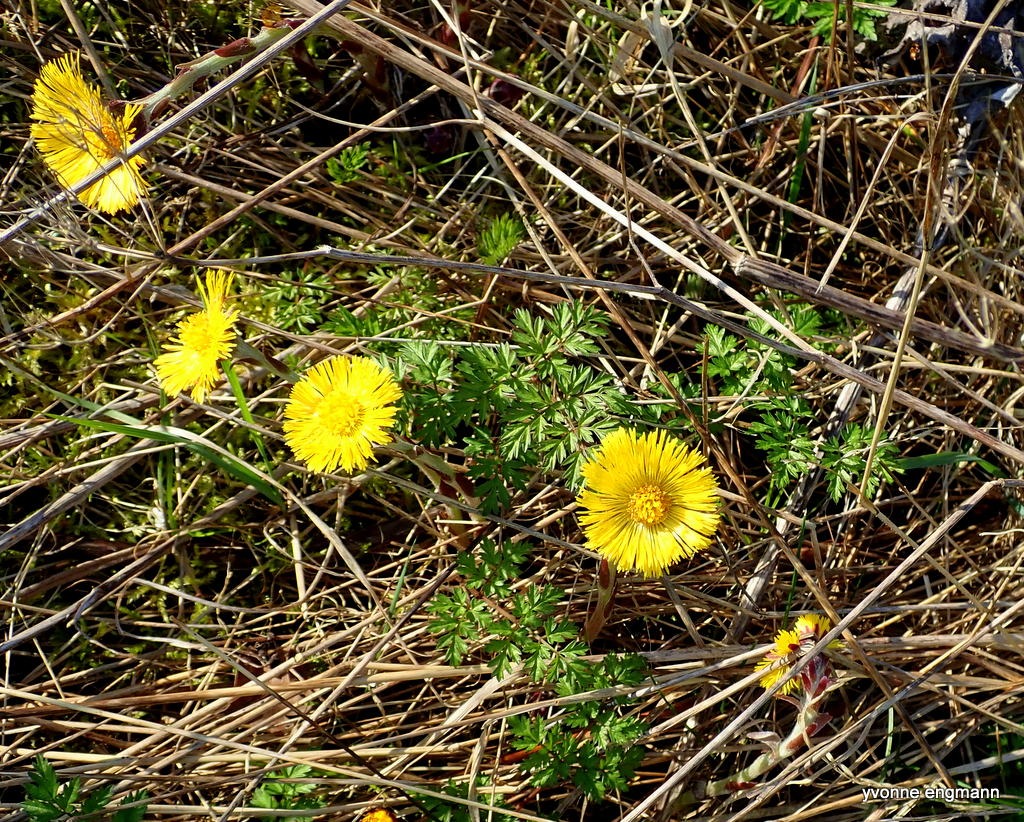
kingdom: Plantae
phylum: Tracheophyta
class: Magnoliopsida
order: Asterales
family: Asteraceae
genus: Tussilago
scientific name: Tussilago farfara
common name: Følfod
